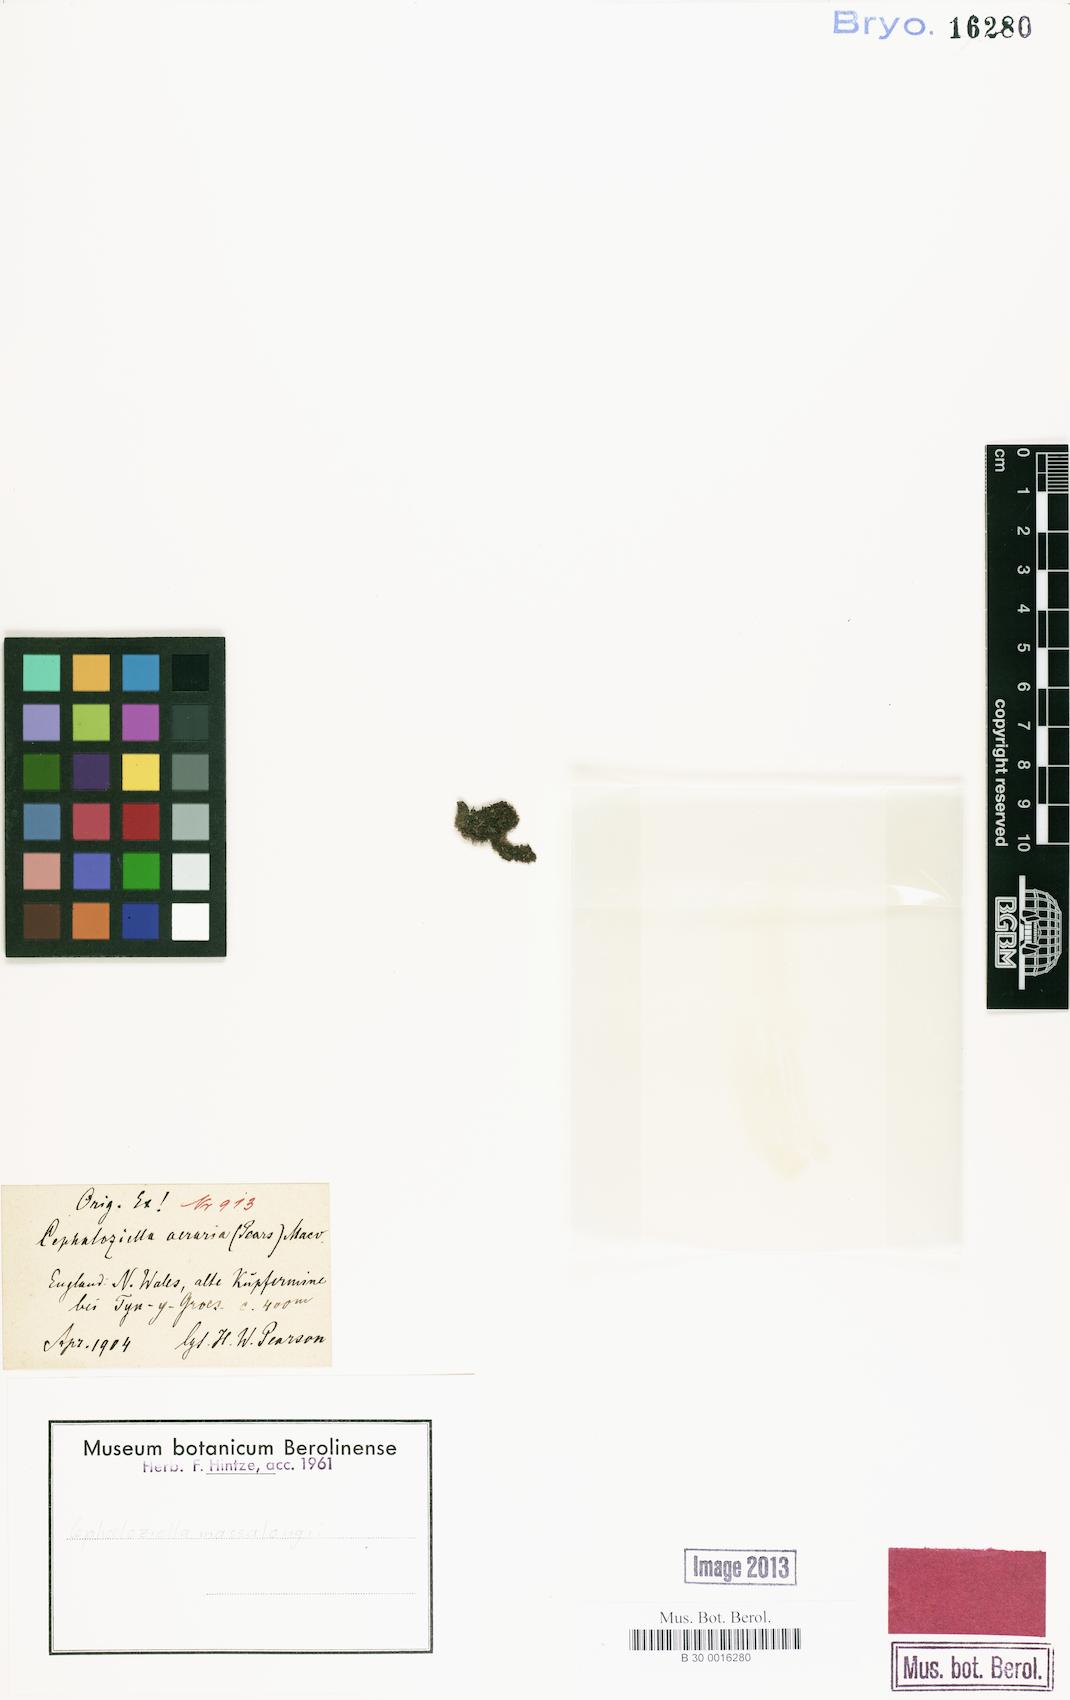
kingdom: Plantae
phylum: Marchantiophyta
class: Jungermanniopsida
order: Jungermanniales
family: Cephaloziellaceae
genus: Cephaloziella
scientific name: Cephaloziella massalongi
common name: Lesser copperwort
